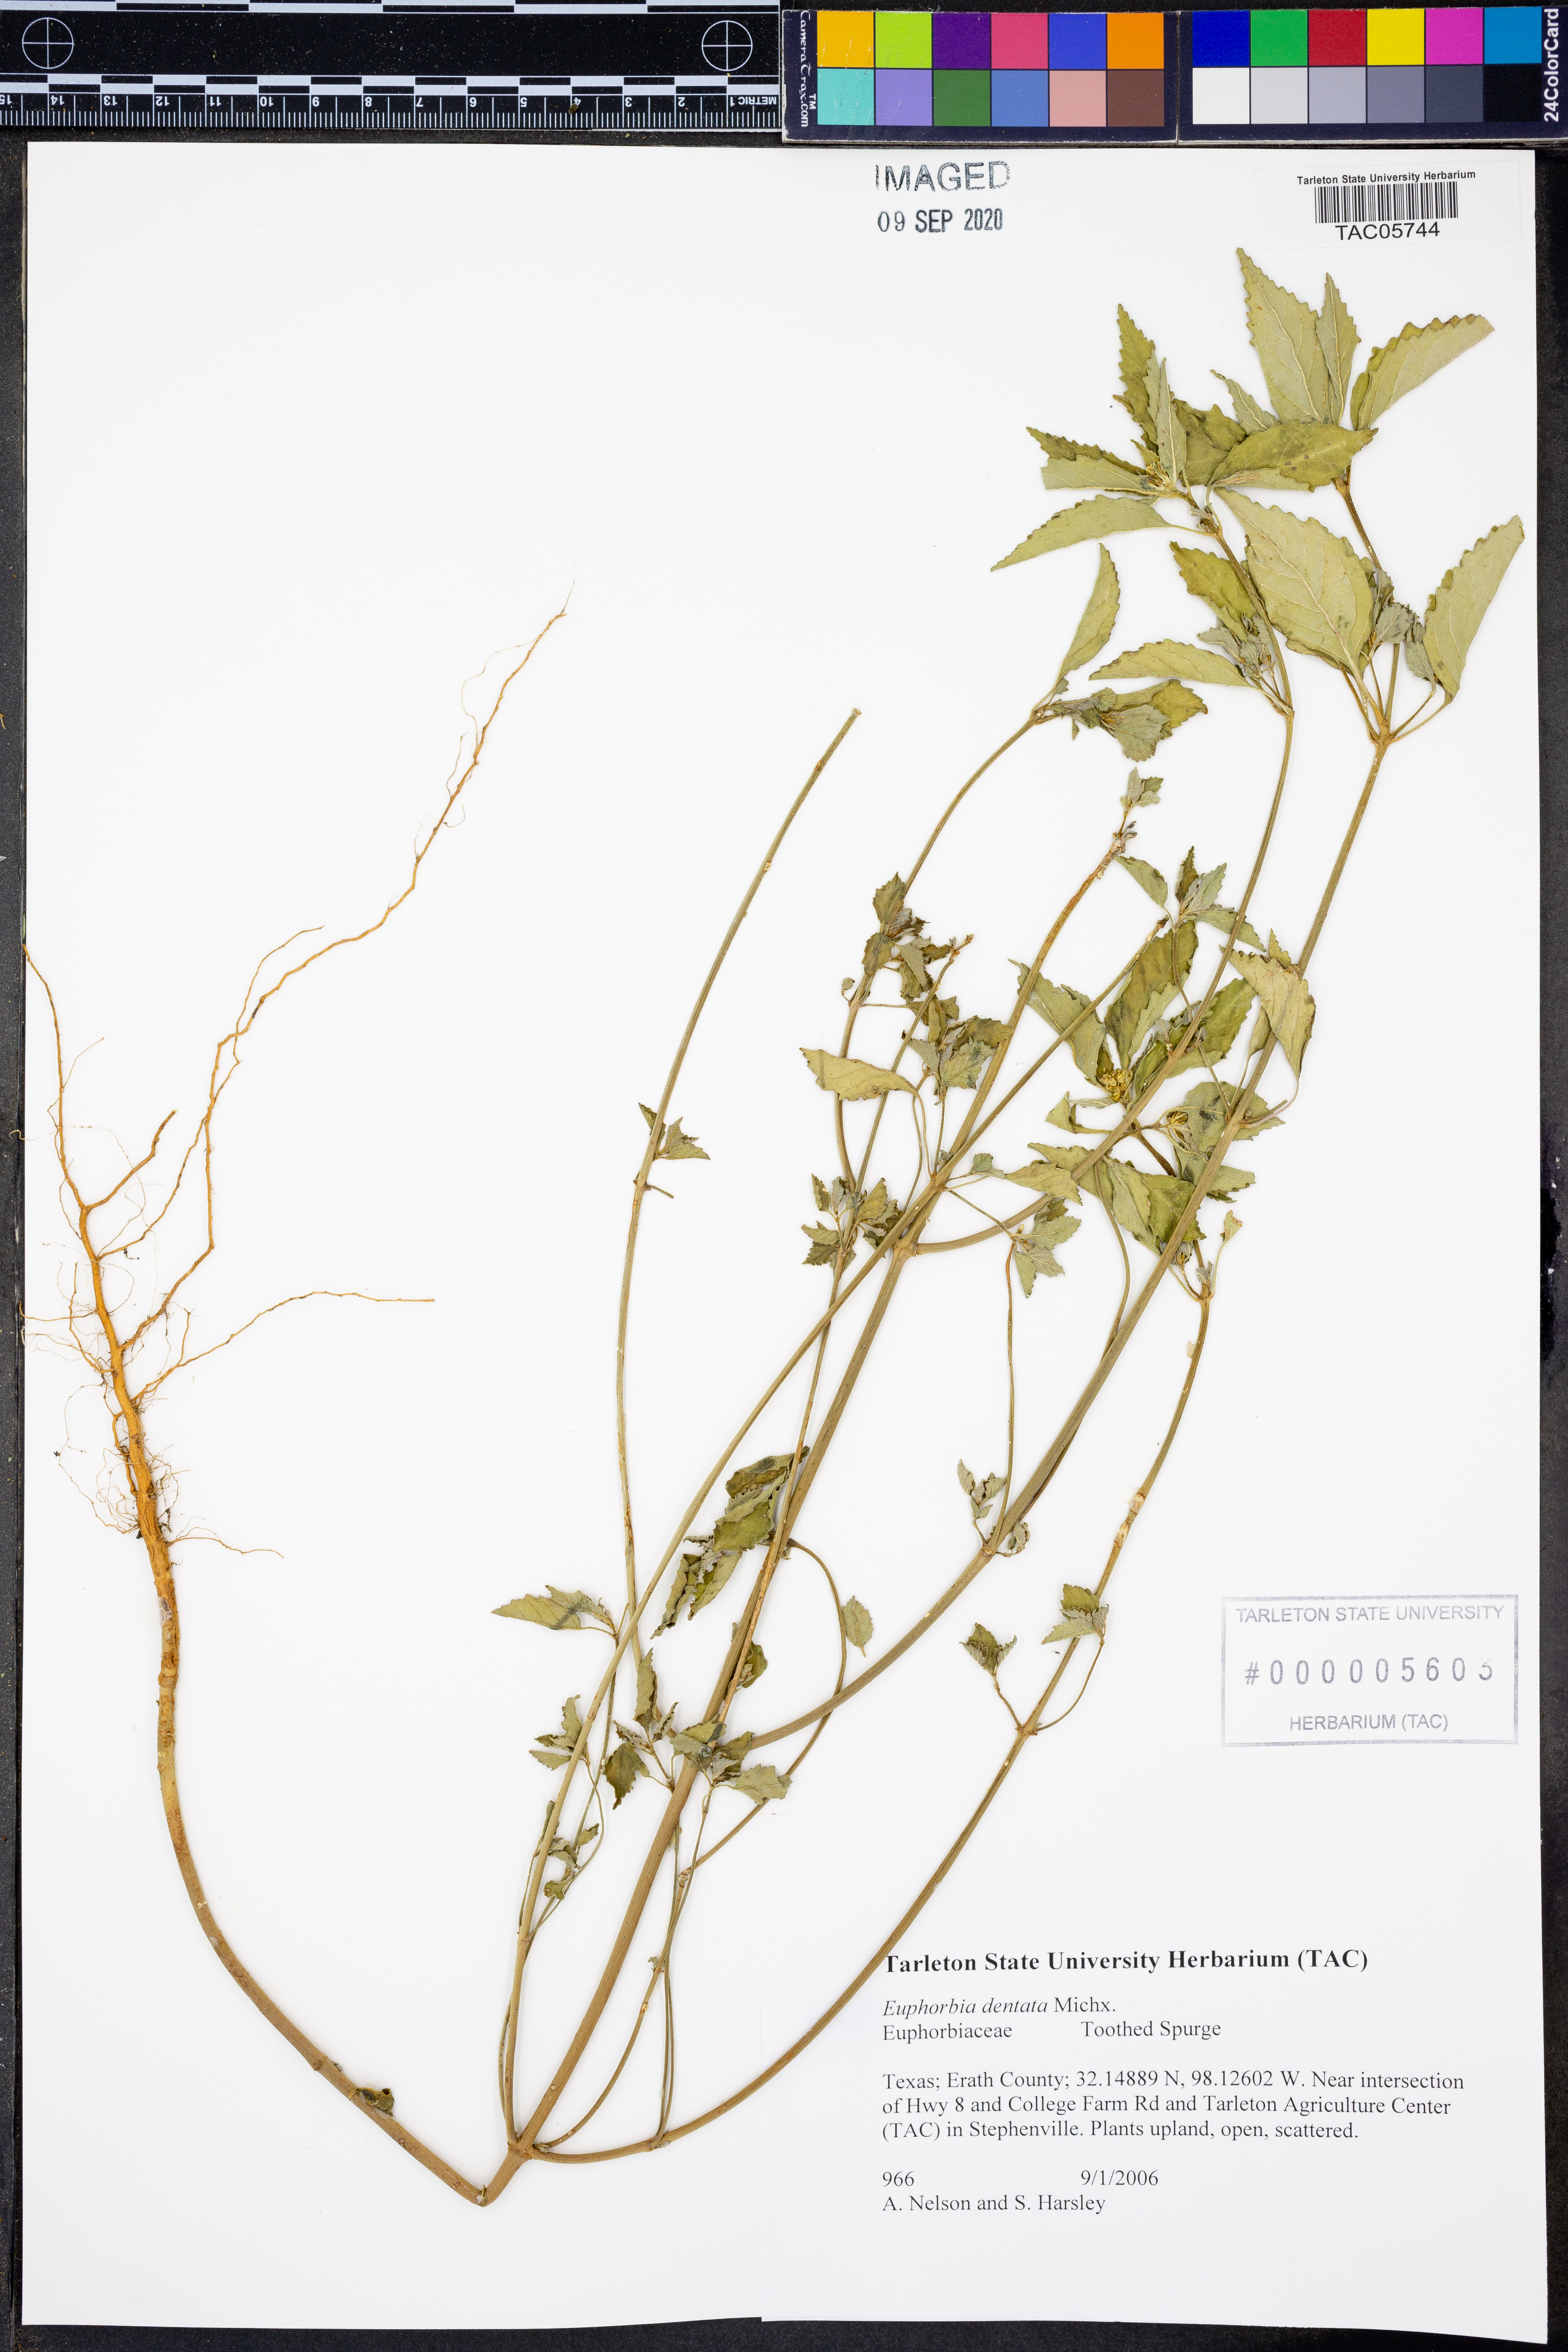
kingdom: Plantae
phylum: Tracheophyta
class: Magnoliopsida
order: Malpighiales
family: Euphorbiaceae
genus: Euphorbia
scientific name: Euphorbia dentata
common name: Dentate spurge
